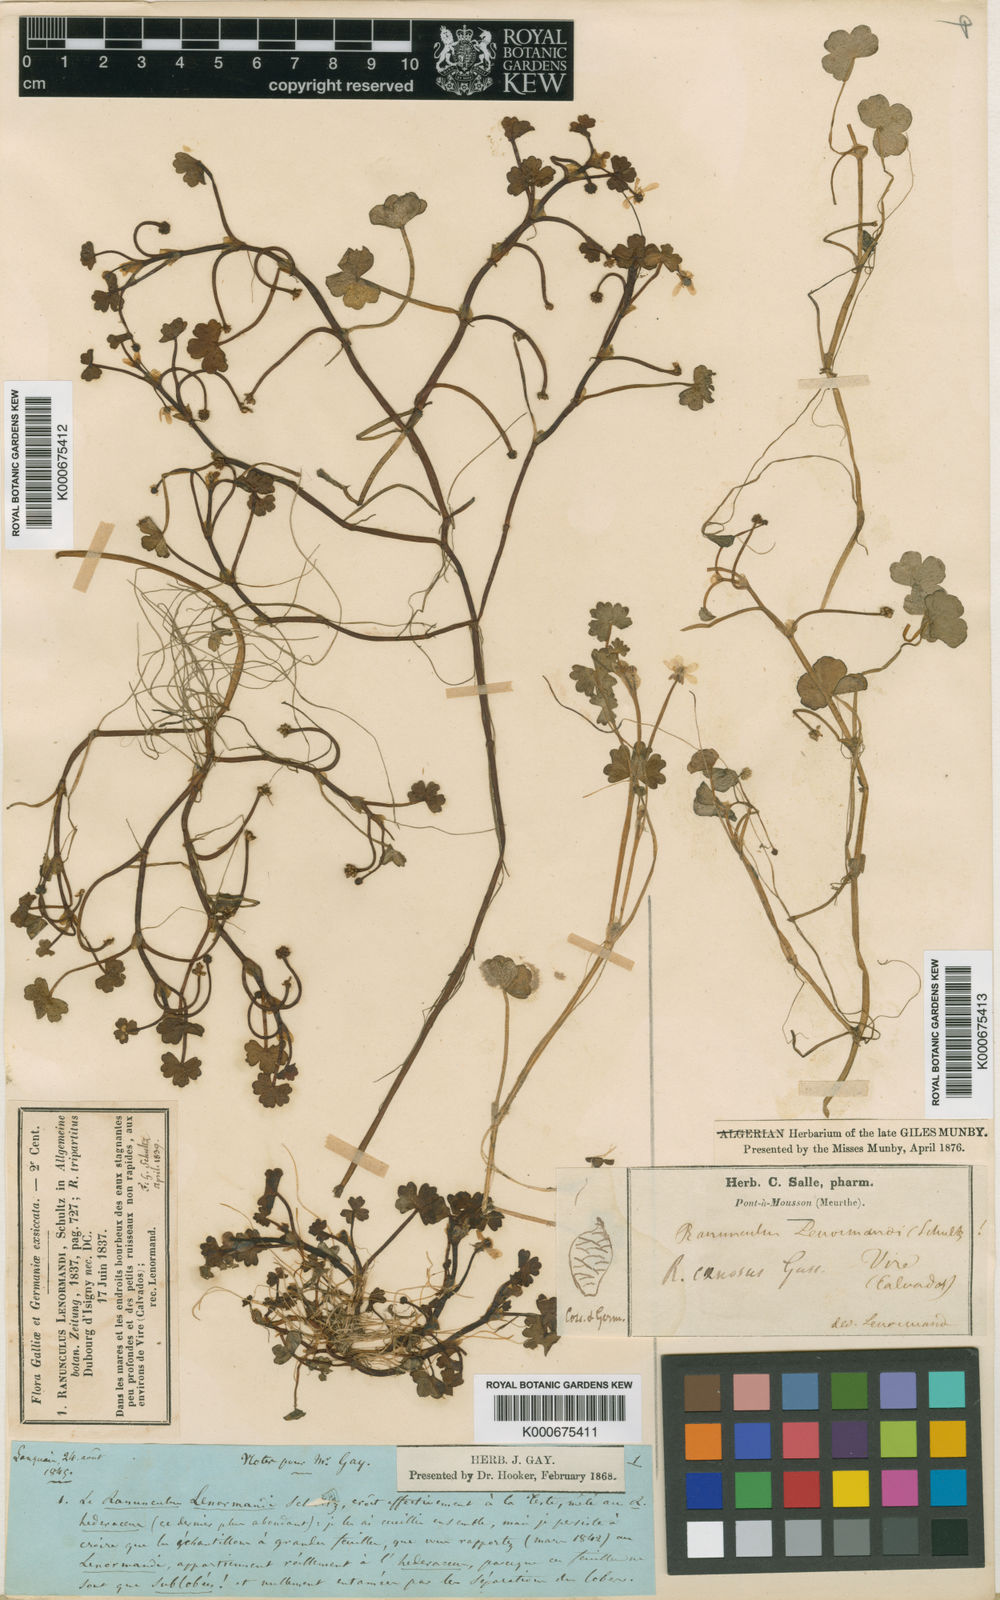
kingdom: Plantae
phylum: Tracheophyta
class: Magnoliopsida
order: Ranunculales
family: Ranunculaceae
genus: Ranunculus
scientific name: Ranunculus omiophyllus
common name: Round-leaved crowfoot
